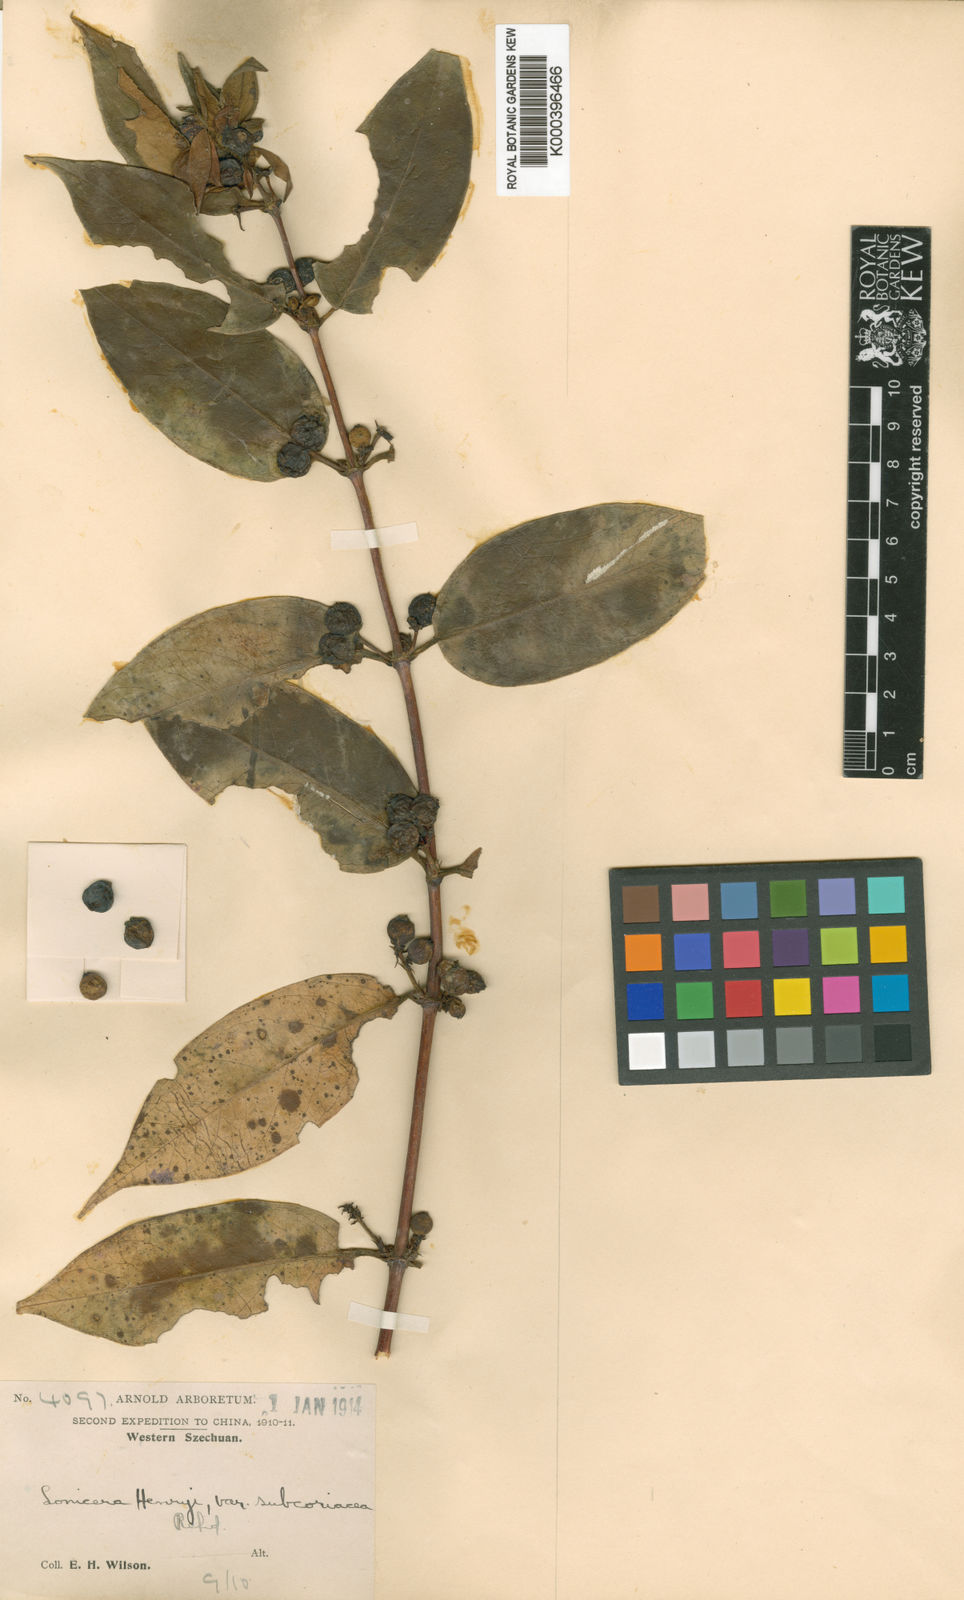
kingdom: Plantae
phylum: Tracheophyta
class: Magnoliopsida
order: Dipsacales
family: Caprifoliaceae
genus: Lonicera
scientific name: Lonicera acuminata
